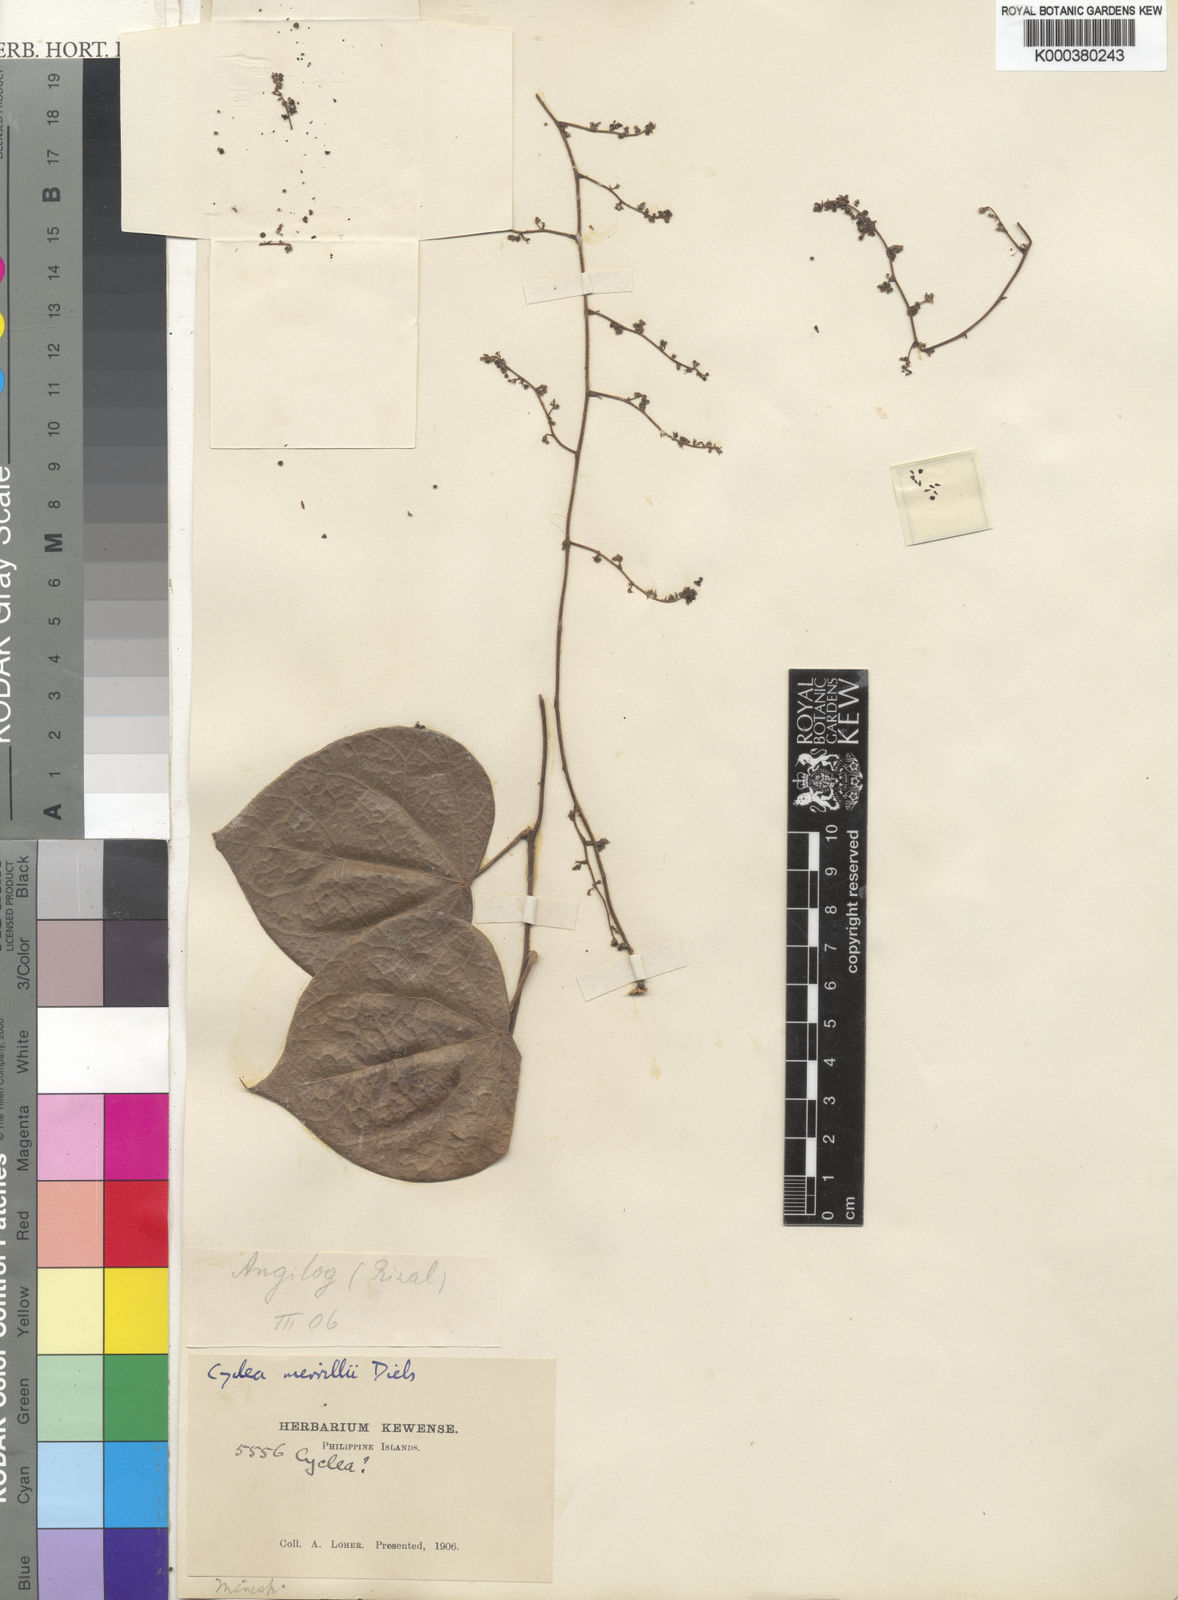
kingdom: Plantae
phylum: Tracheophyta
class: Magnoliopsida
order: Ranunculales
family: Menispermaceae
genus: Cyclea
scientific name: Cyclea merrillii
